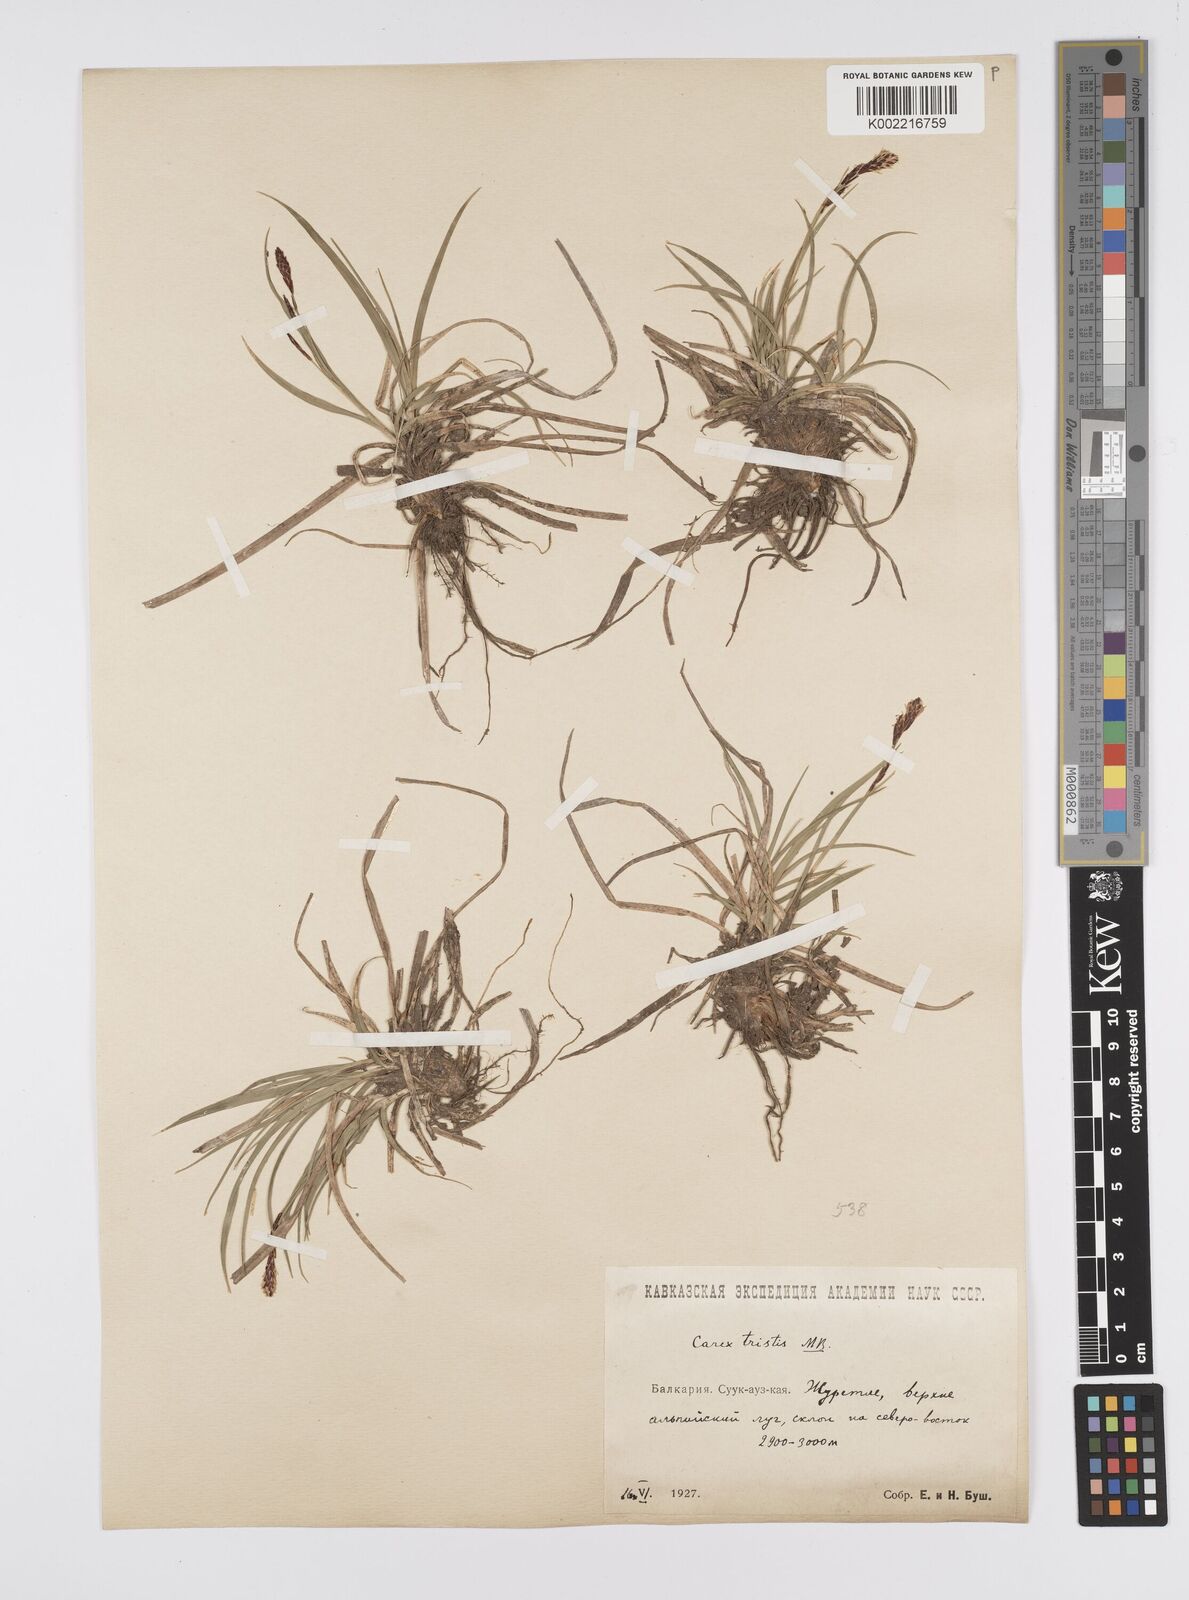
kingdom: Plantae
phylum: Tracheophyta
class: Liliopsida
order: Poales
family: Cyperaceae
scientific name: Cyperaceae
